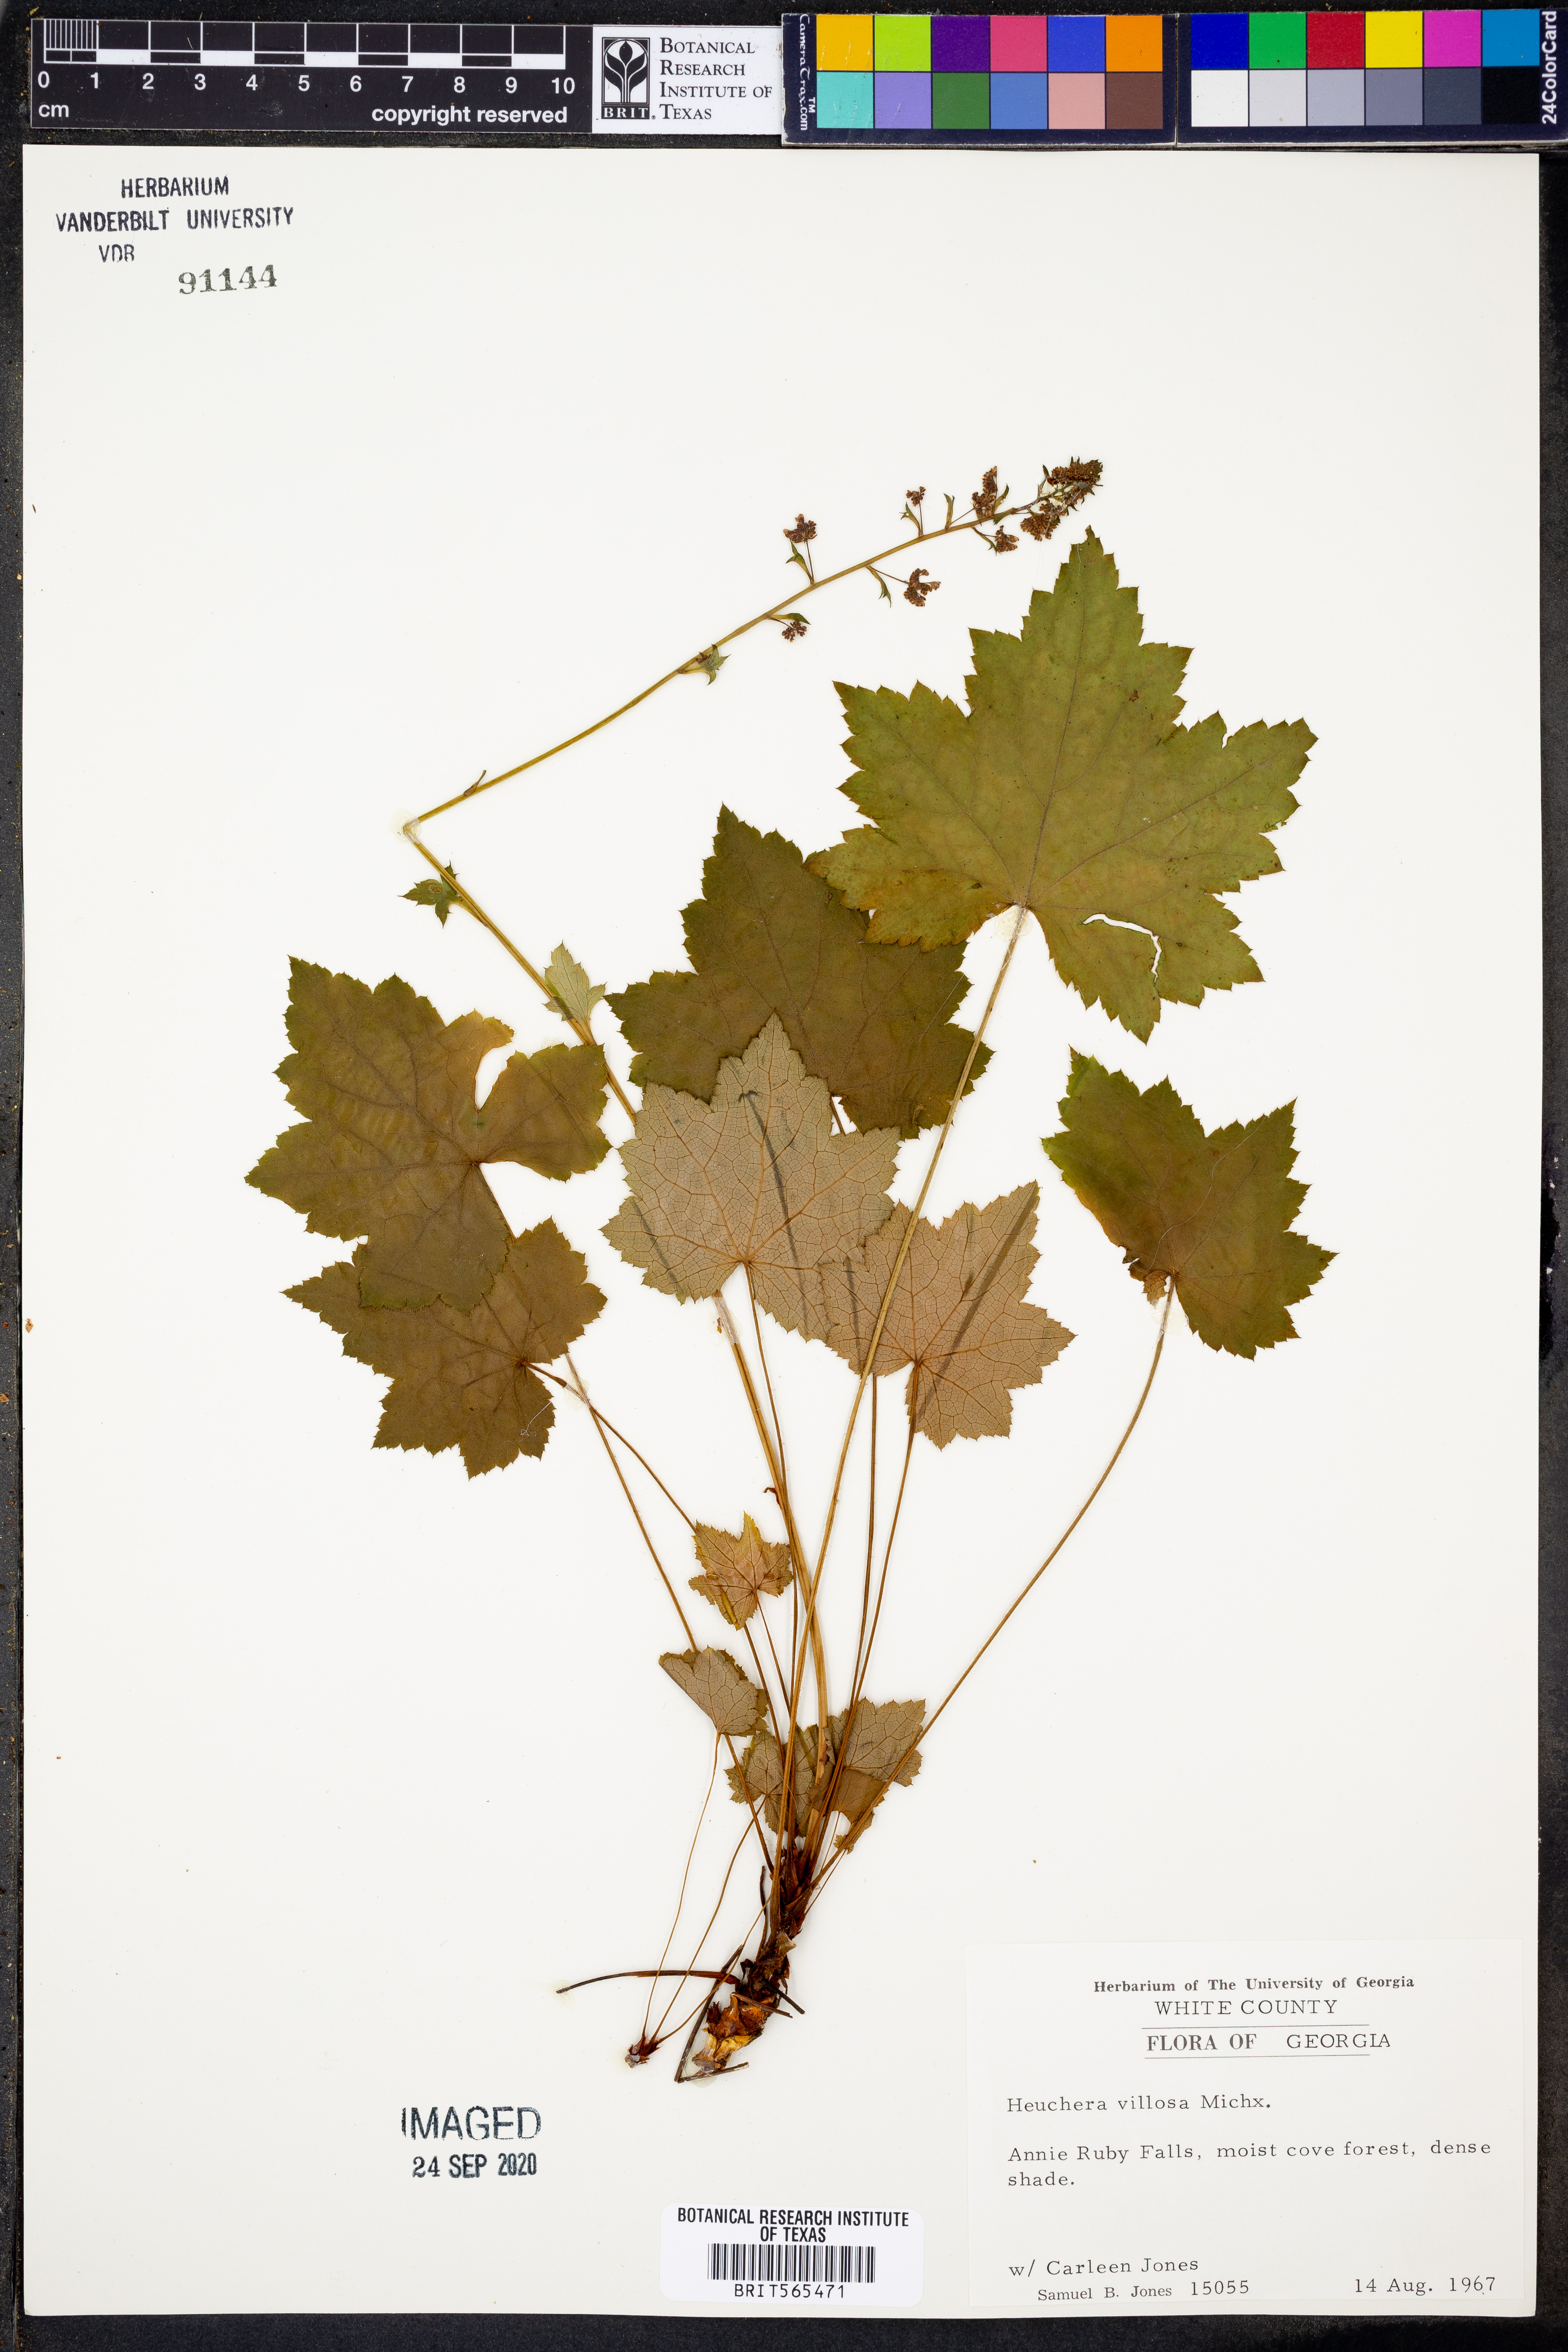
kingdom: Plantae
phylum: Tracheophyta
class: Magnoliopsida
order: Saxifragales
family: Saxifragaceae
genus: Heuchera
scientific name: Heuchera villosa
